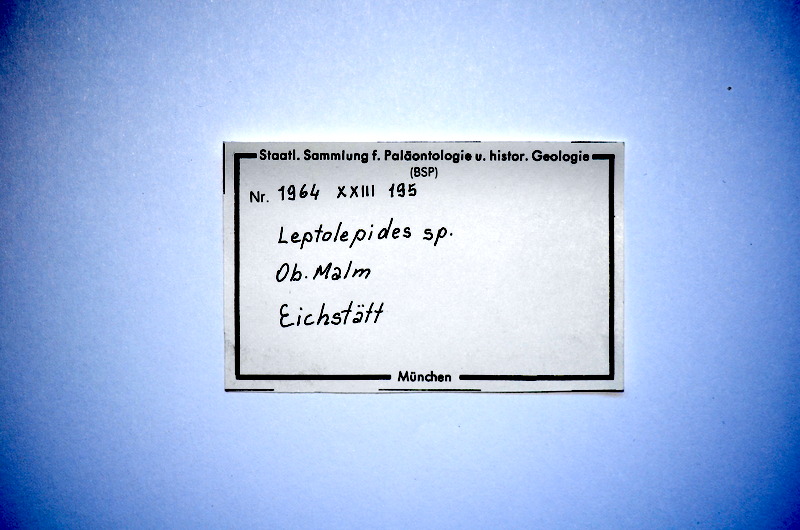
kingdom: Animalia
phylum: Chordata
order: Salmoniformes
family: Orthogonikleithridae
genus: Leptolepides
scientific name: Leptolepides
